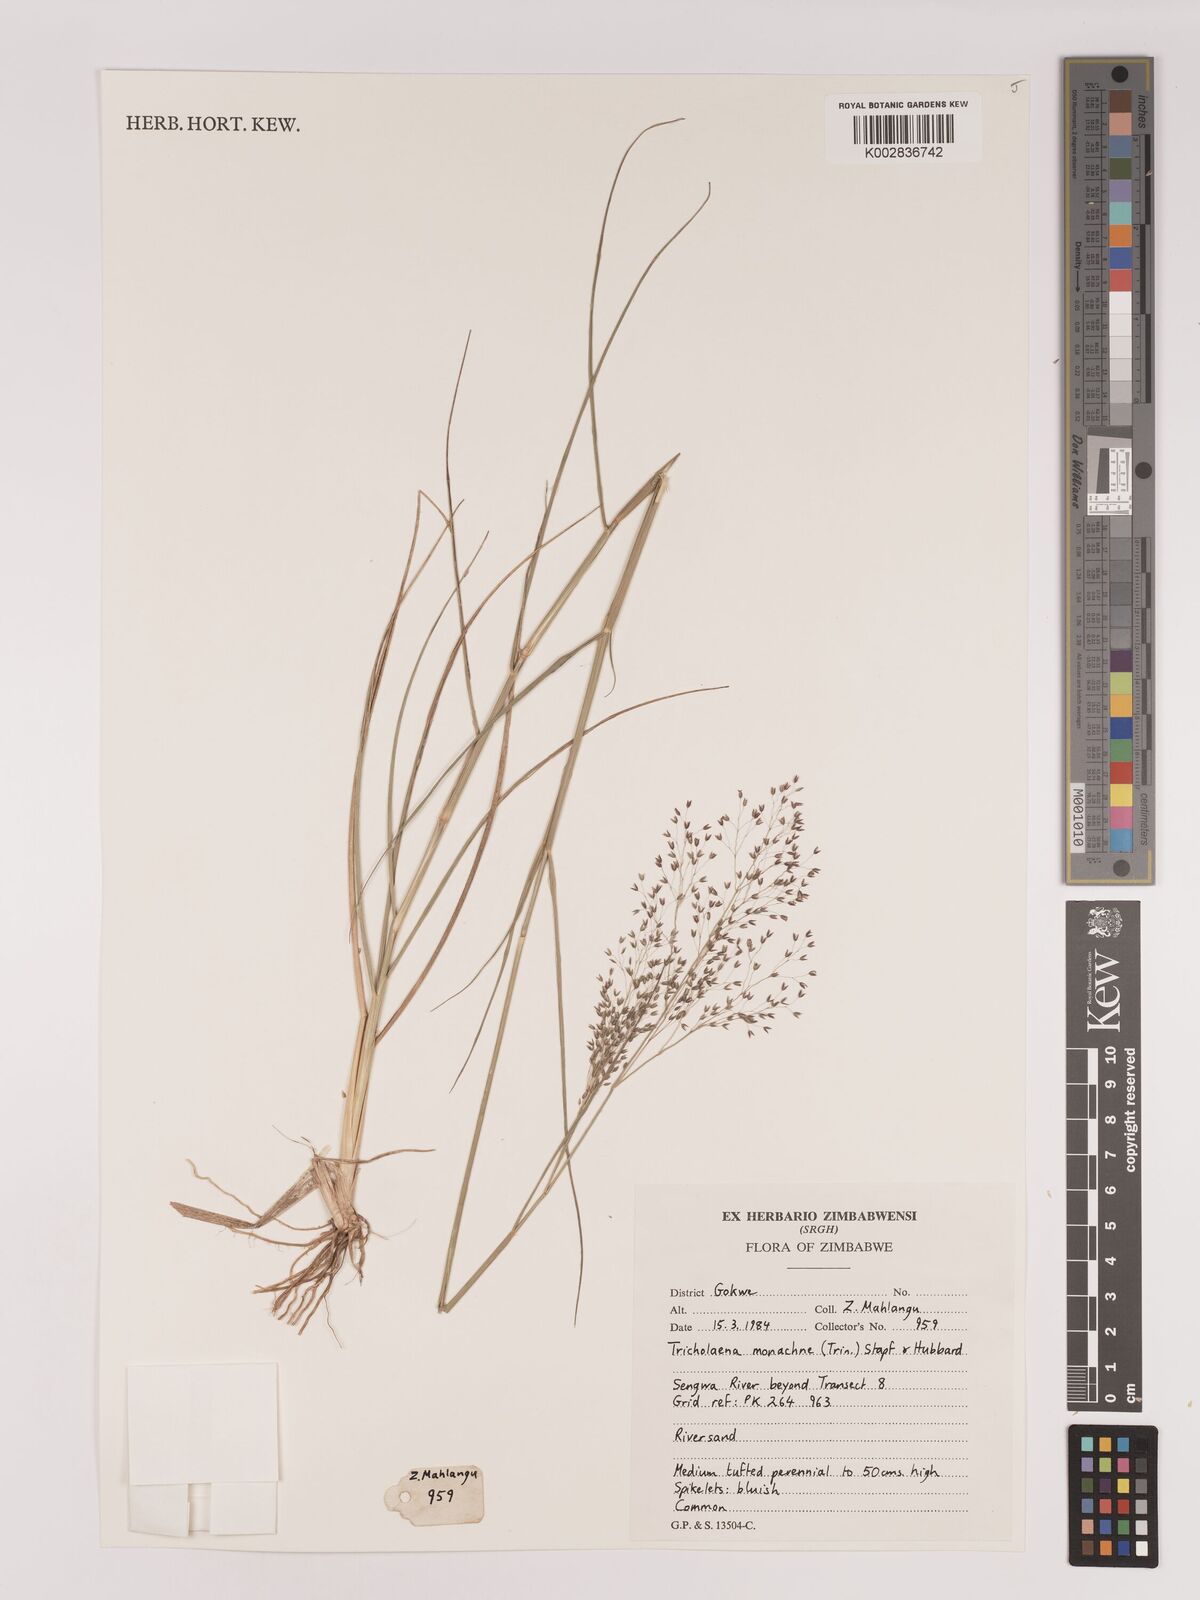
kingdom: Plantae
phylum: Tracheophyta
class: Liliopsida
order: Poales
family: Poaceae
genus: Tricholaena
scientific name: Tricholaena monachne
